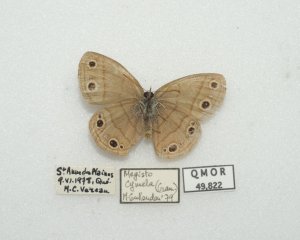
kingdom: Animalia
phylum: Arthropoda
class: Insecta
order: Lepidoptera
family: Nymphalidae
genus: Euptychia
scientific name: Euptychia cymela
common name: Little Wood Satyr
